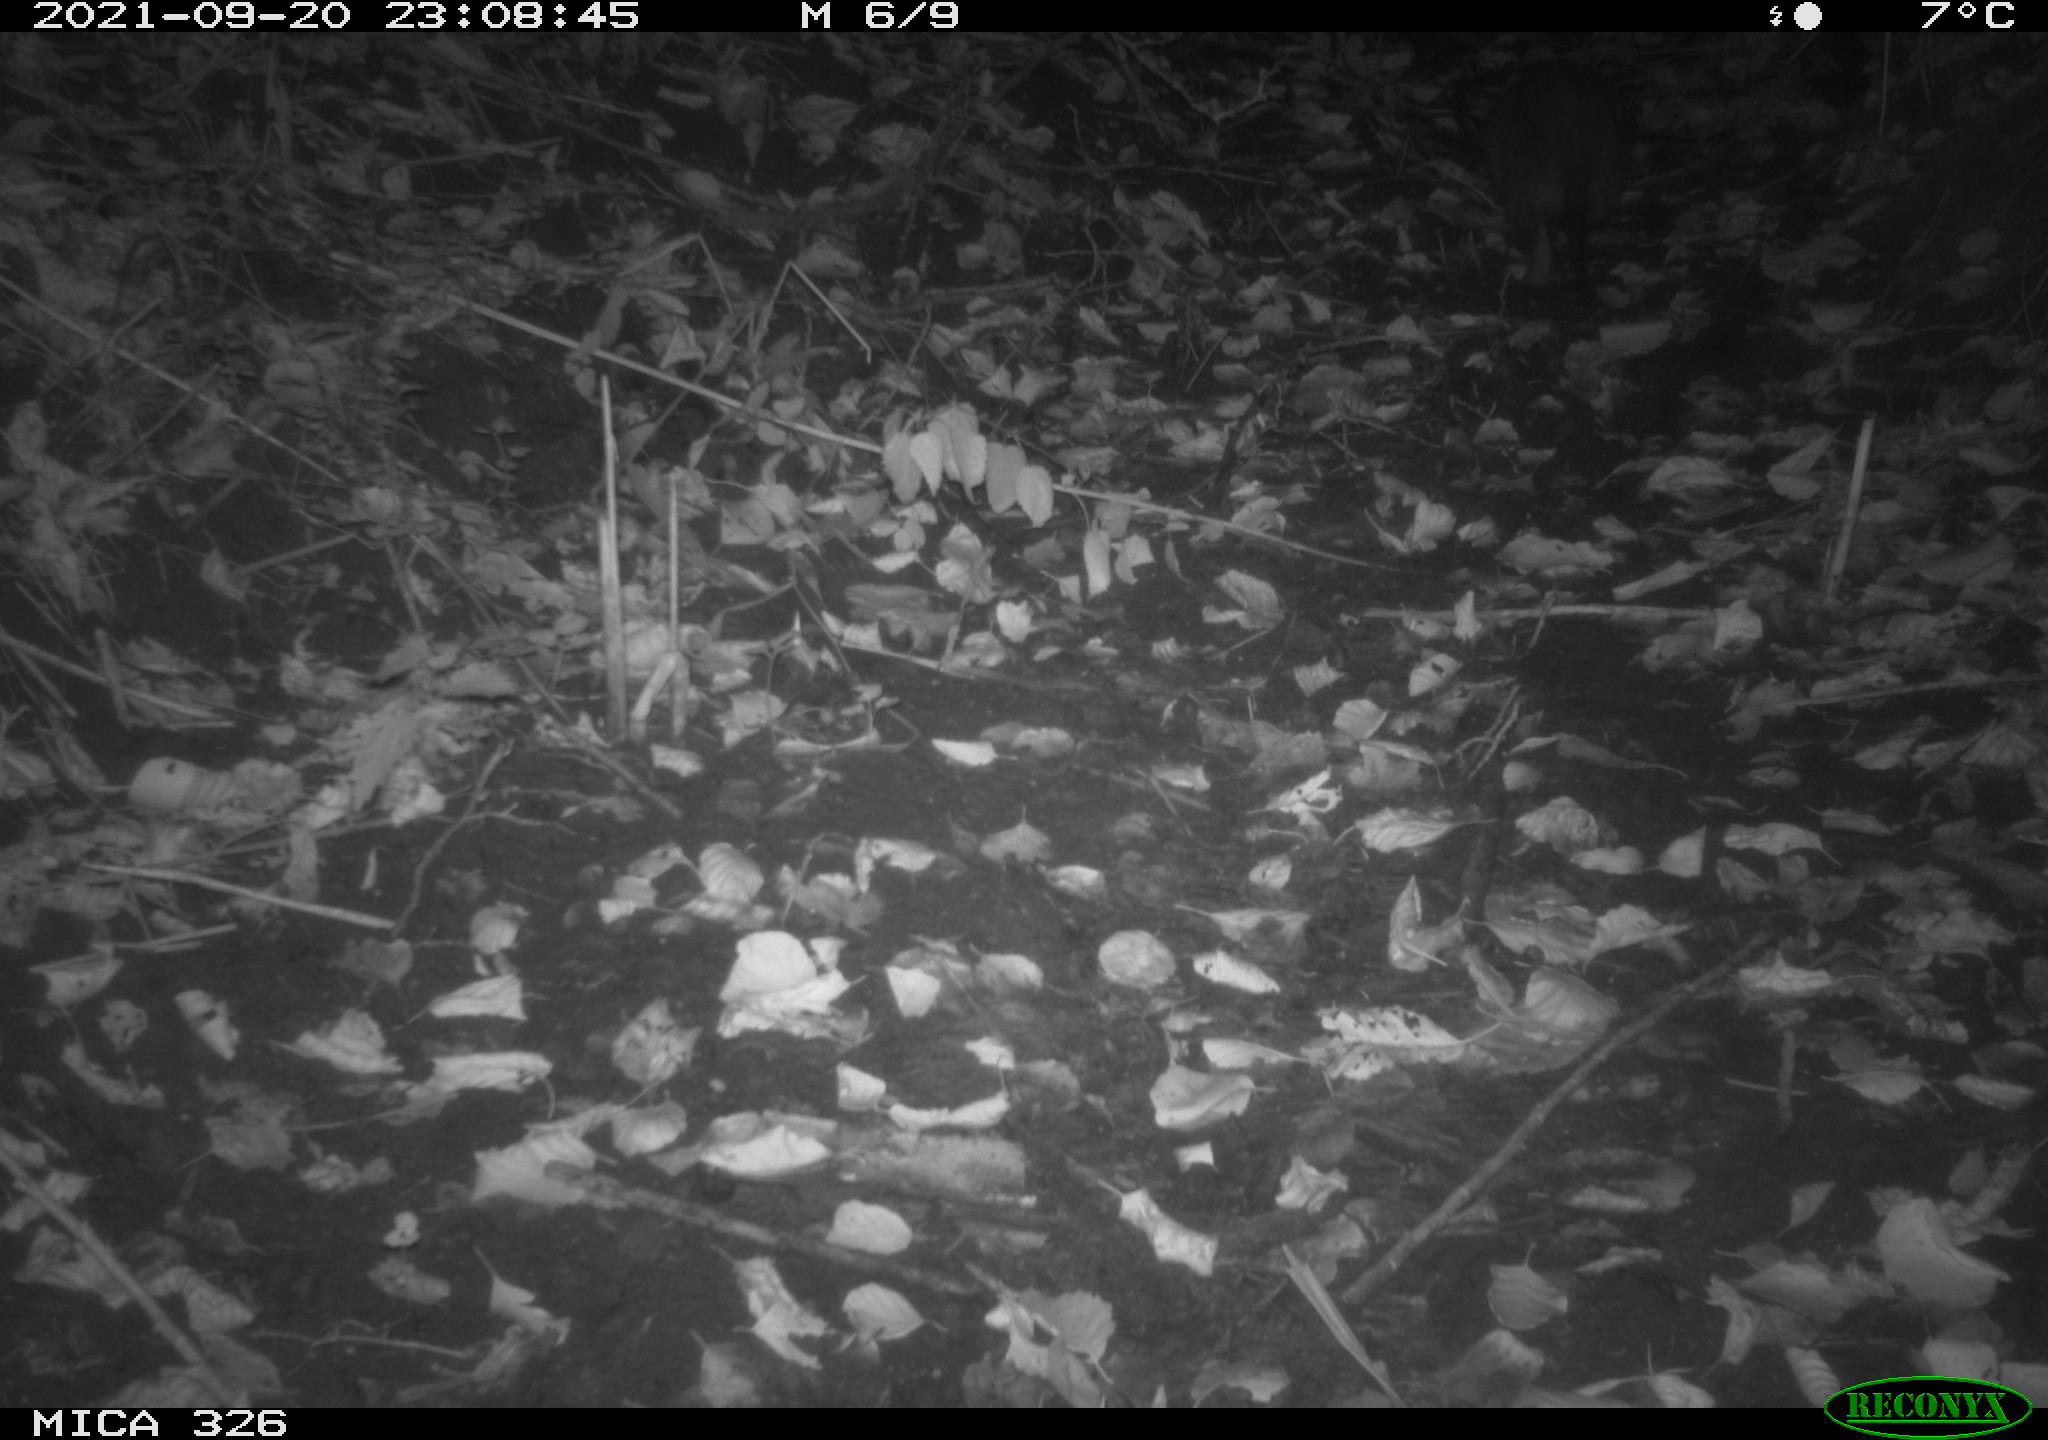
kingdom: Animalia
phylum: Chordata
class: Mammalia
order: Rodentia
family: Myocastoridae
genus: Myocastor
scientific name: Myocastor coypus
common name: Coypu
